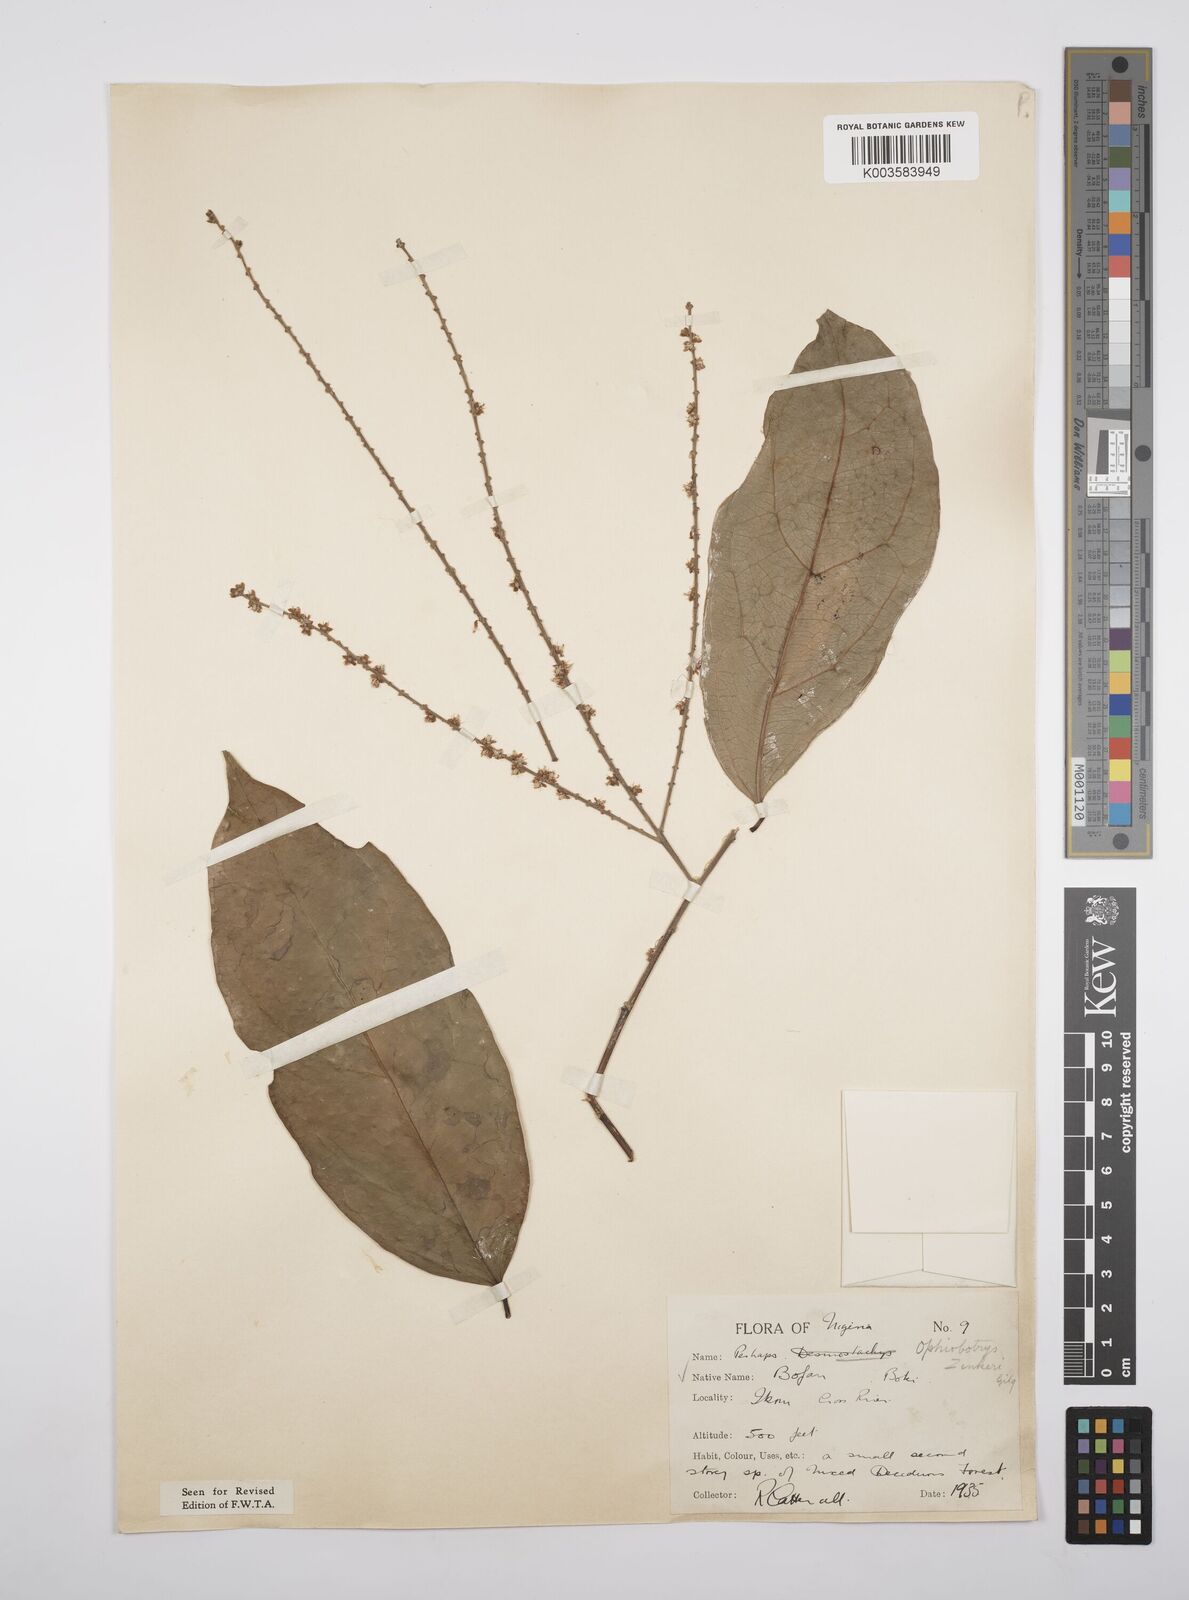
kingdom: Plantae
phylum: Tracheophyta
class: Magnoliopsida
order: Malpighiales
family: Salicaceae
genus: Ophiobotrys
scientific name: Ophiobotrys zenkeri
